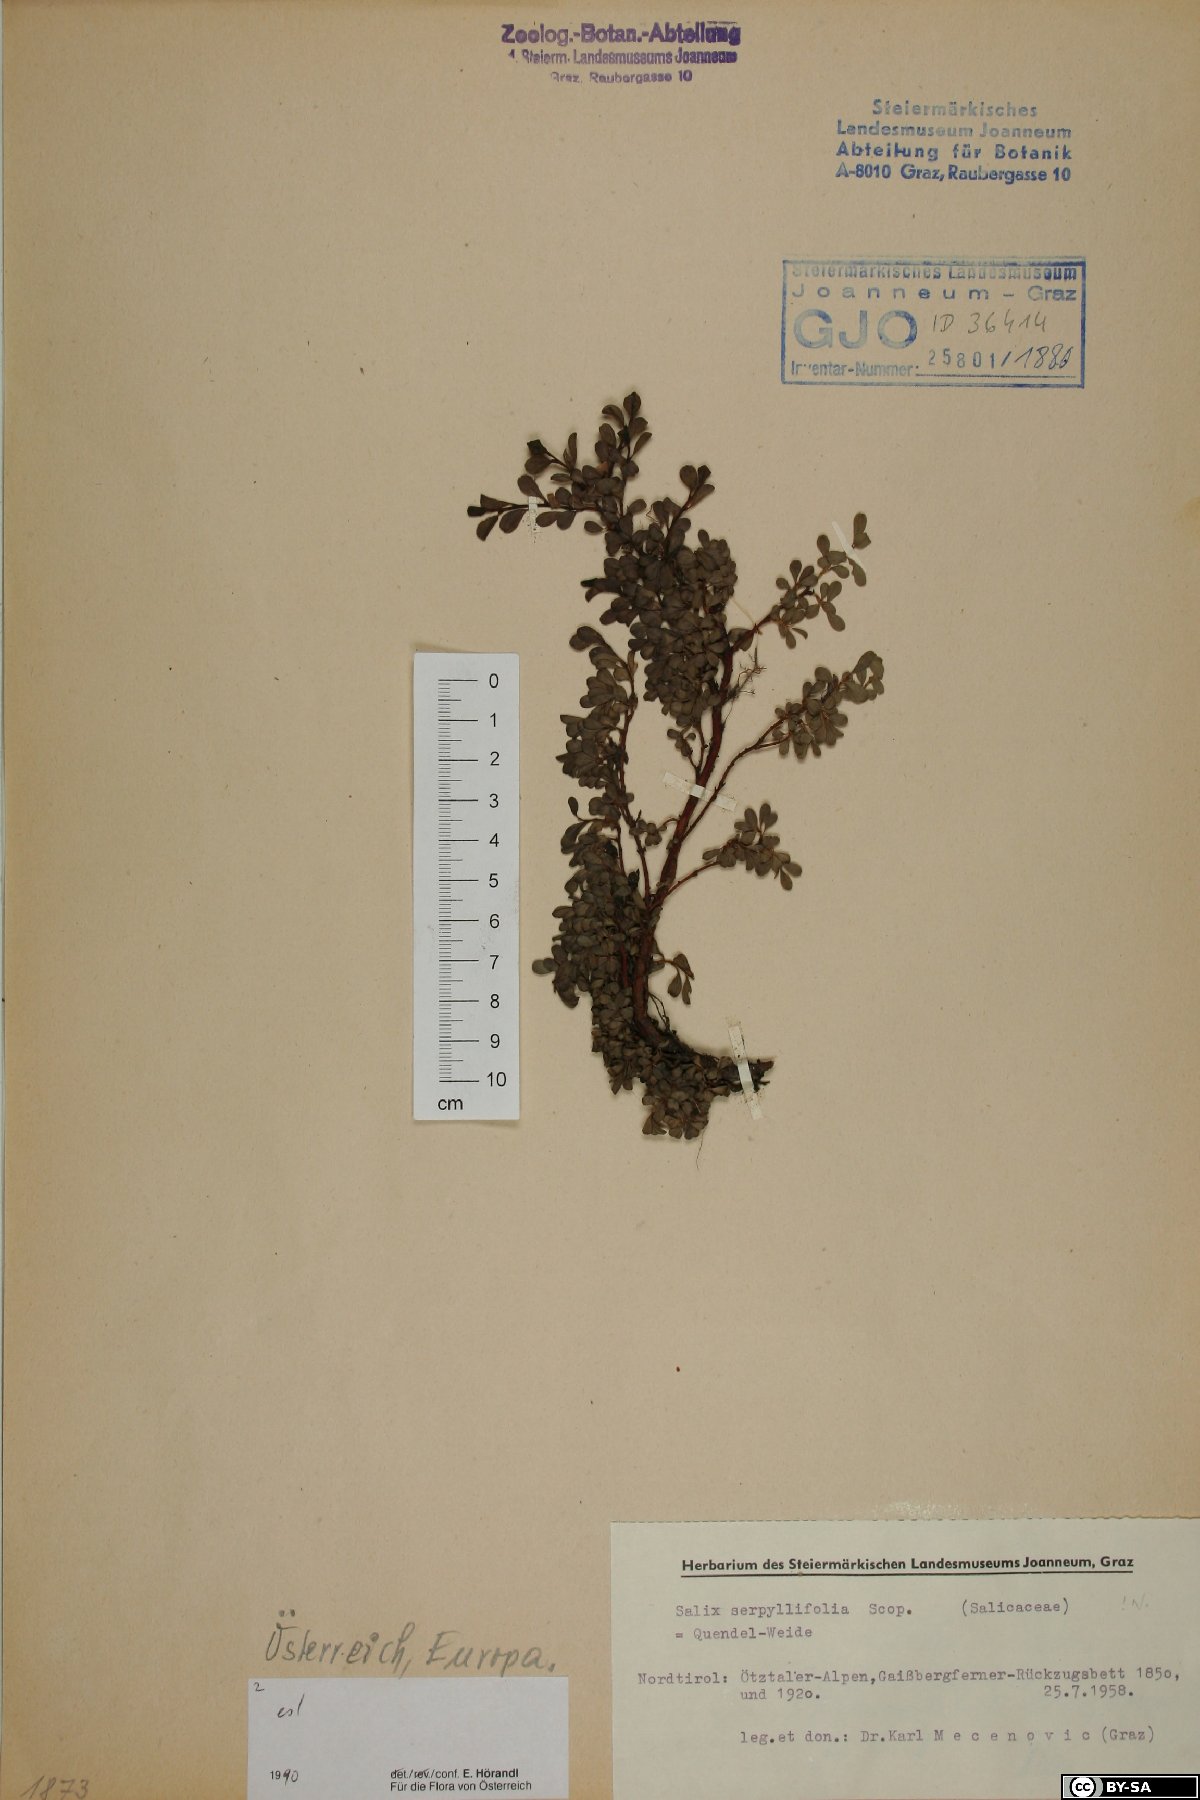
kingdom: Plantae
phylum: Tracheophyta
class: Magnoliopsida
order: Malpighiales
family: Salicaceae
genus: Salix
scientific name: Salix serpillifolia
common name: Thyme-leaf willow
